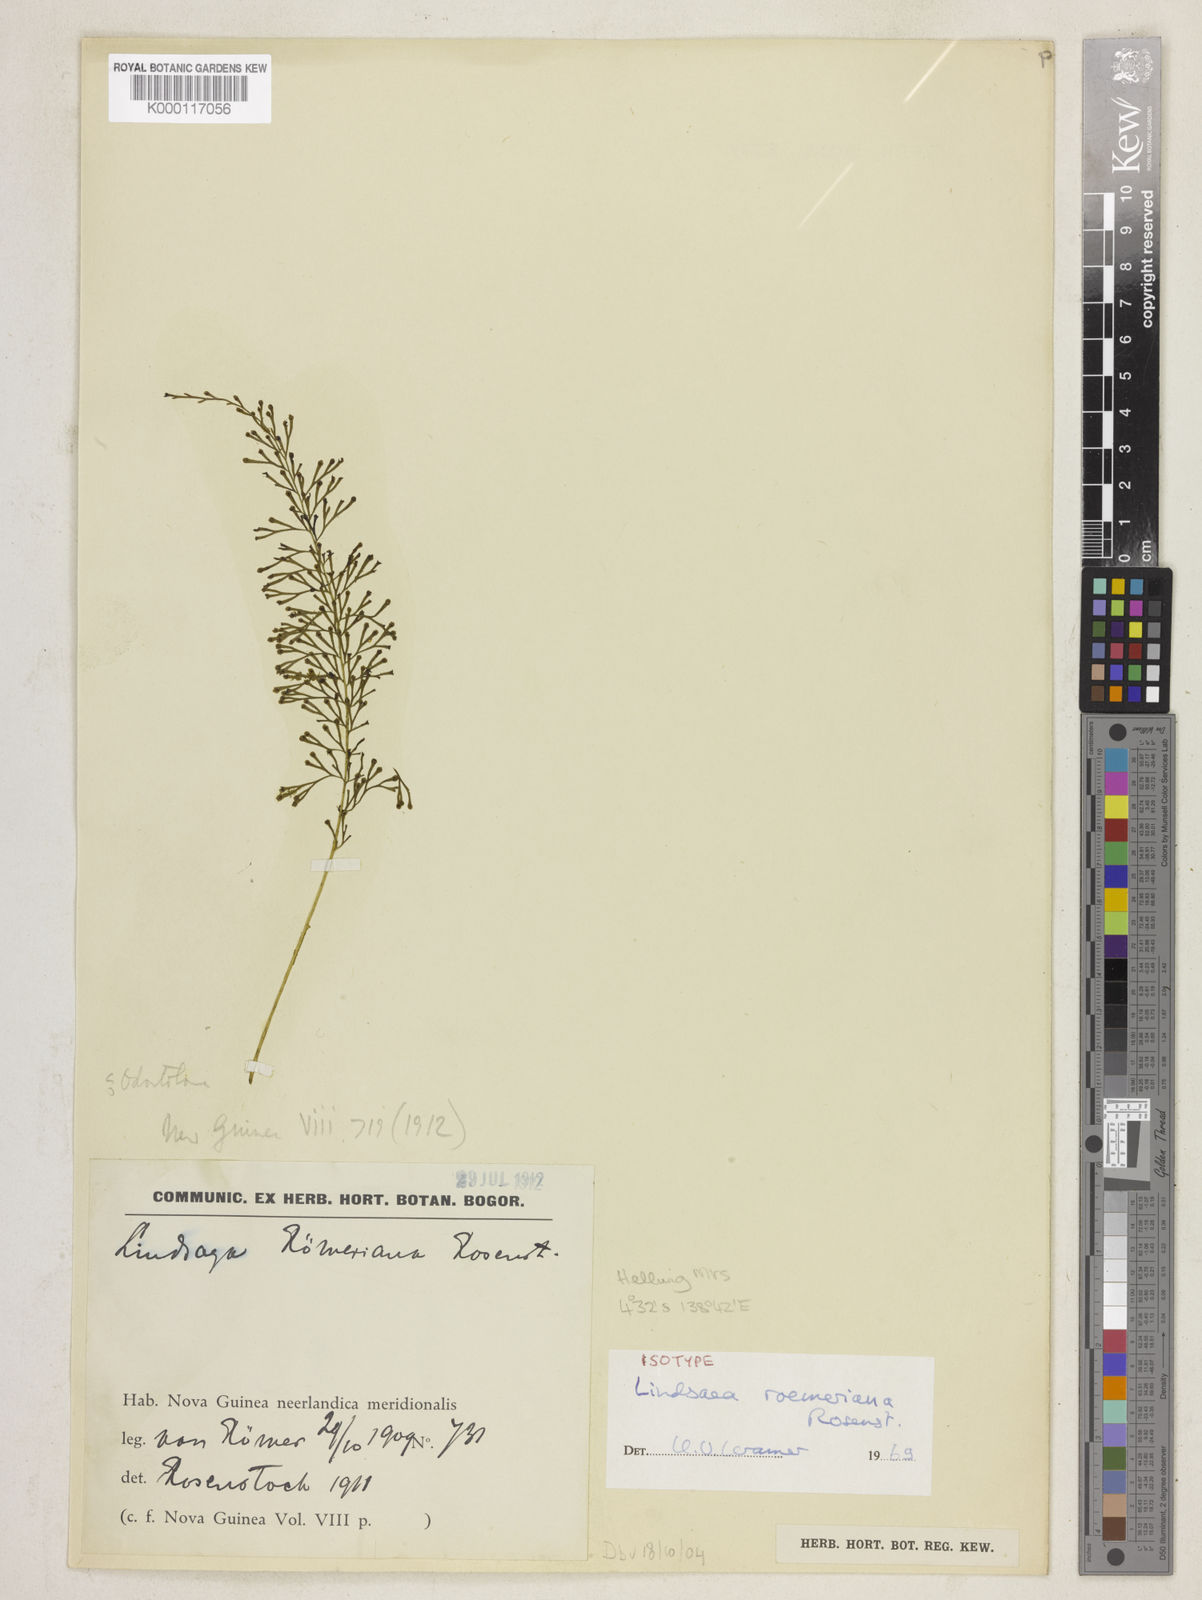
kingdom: Plantae
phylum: Tracheophyta
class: Polypodiopsida
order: Polypodiales
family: Lindsaeaceae
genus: Lindsaea
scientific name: Lindsaea roemeriana
